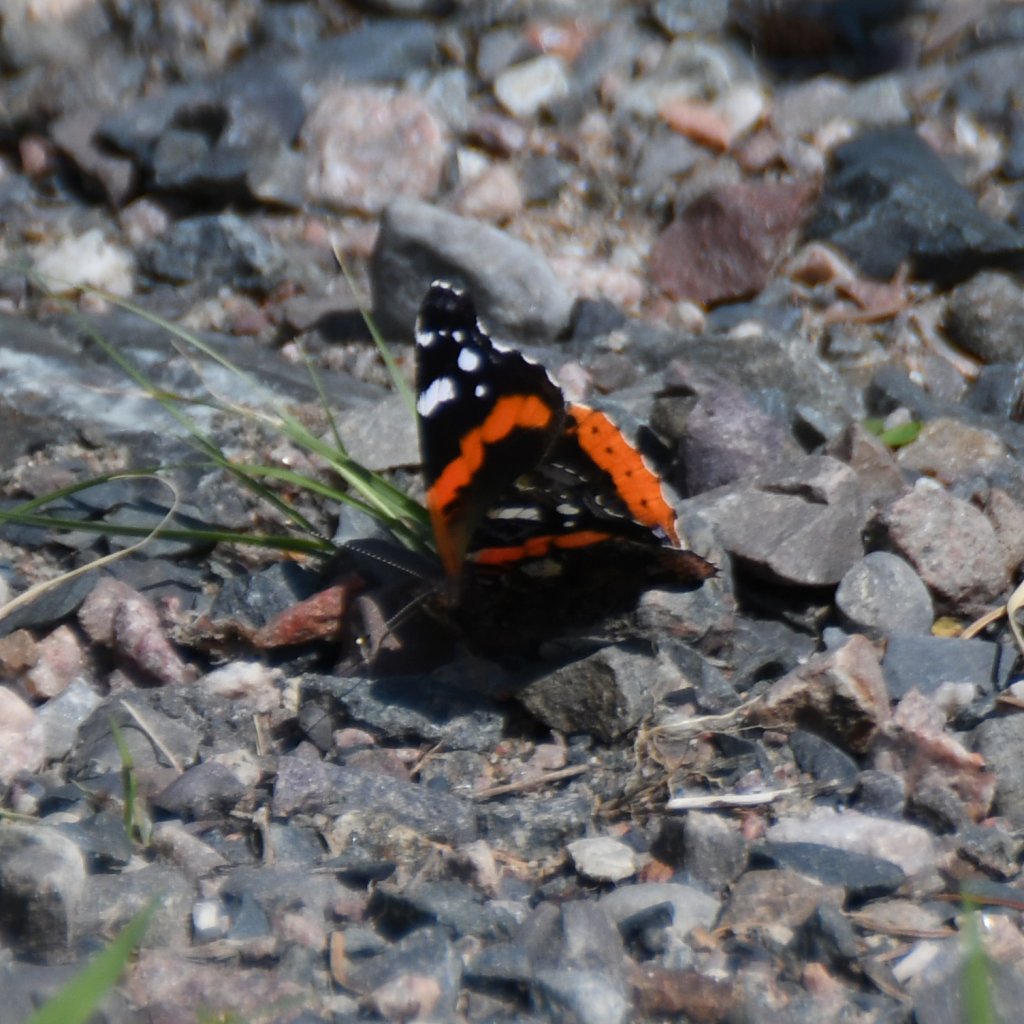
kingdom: Animalia
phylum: Arthropoda
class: Insecta
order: Lepidoptera
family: Nymphalidae
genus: Vanessa
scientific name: Vanessa atalanta
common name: Red Admiral
